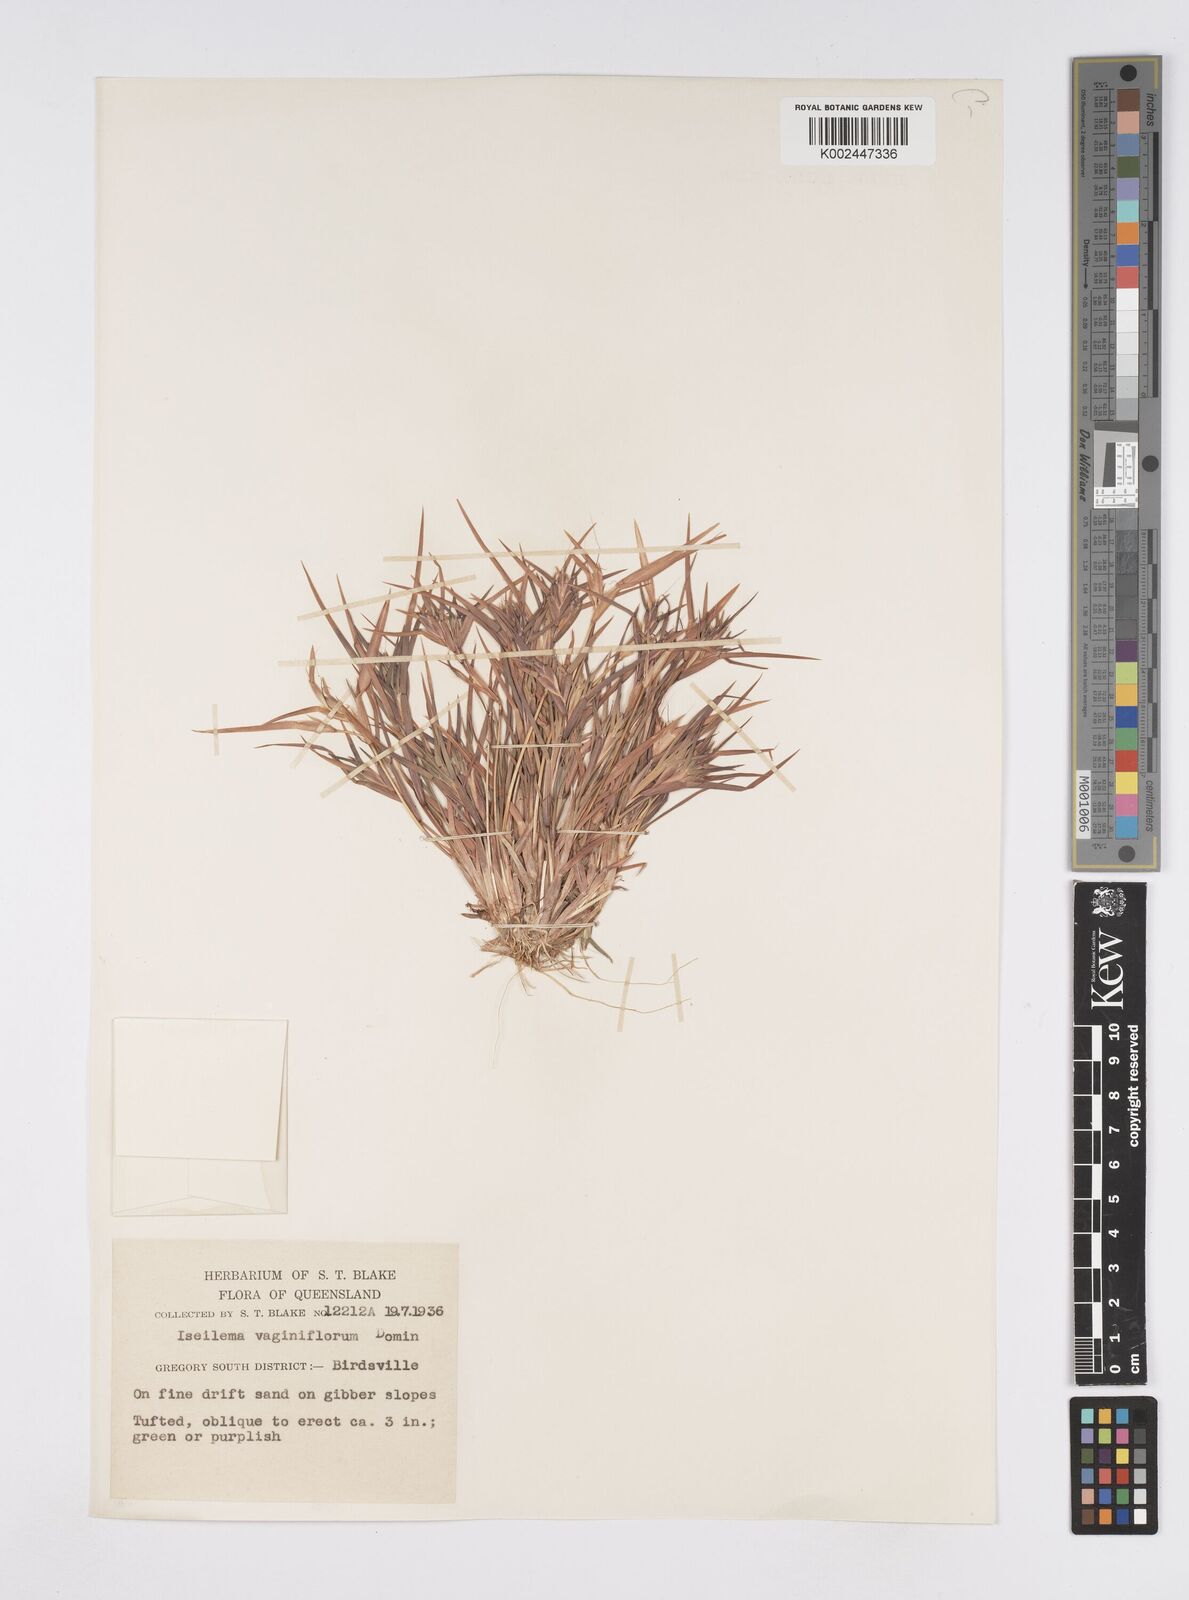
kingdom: Plantae
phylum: Tracheophyta
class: Liliopsida
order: Poales
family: Poaceae
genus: Iseilema
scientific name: Iseilema vaginiflorum
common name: Red flinders grass
